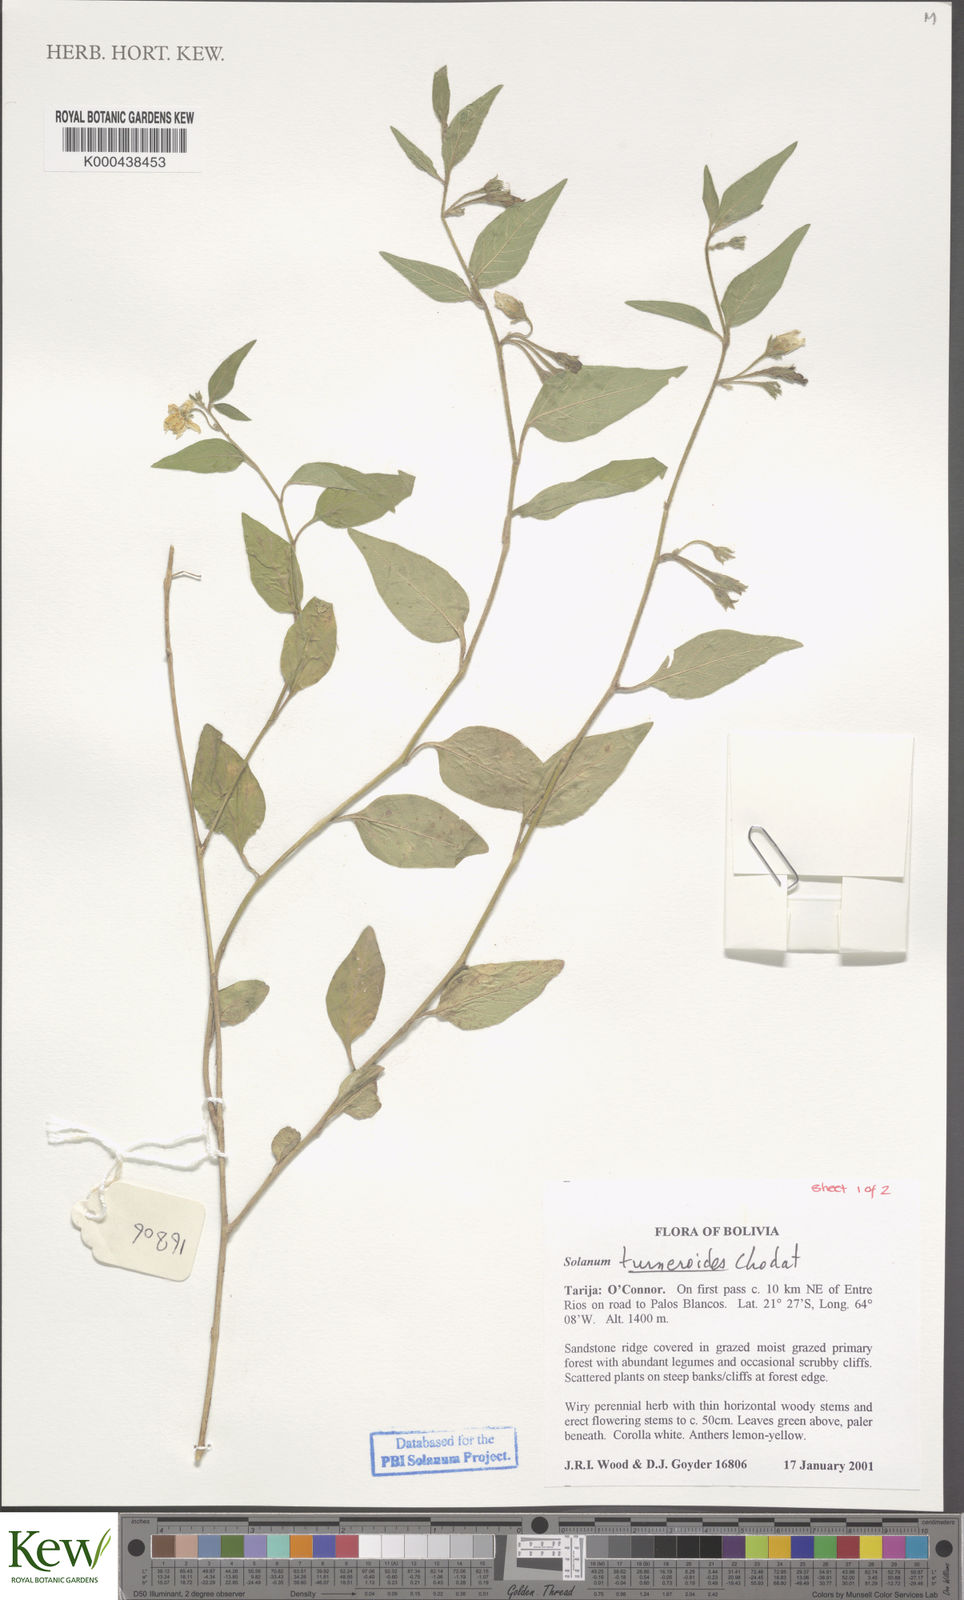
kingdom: Plantae
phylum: Tracheophyta
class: Magnoliopsida
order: Solanales
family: Solanaceae
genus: Solanum
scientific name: Solanum turneroides
